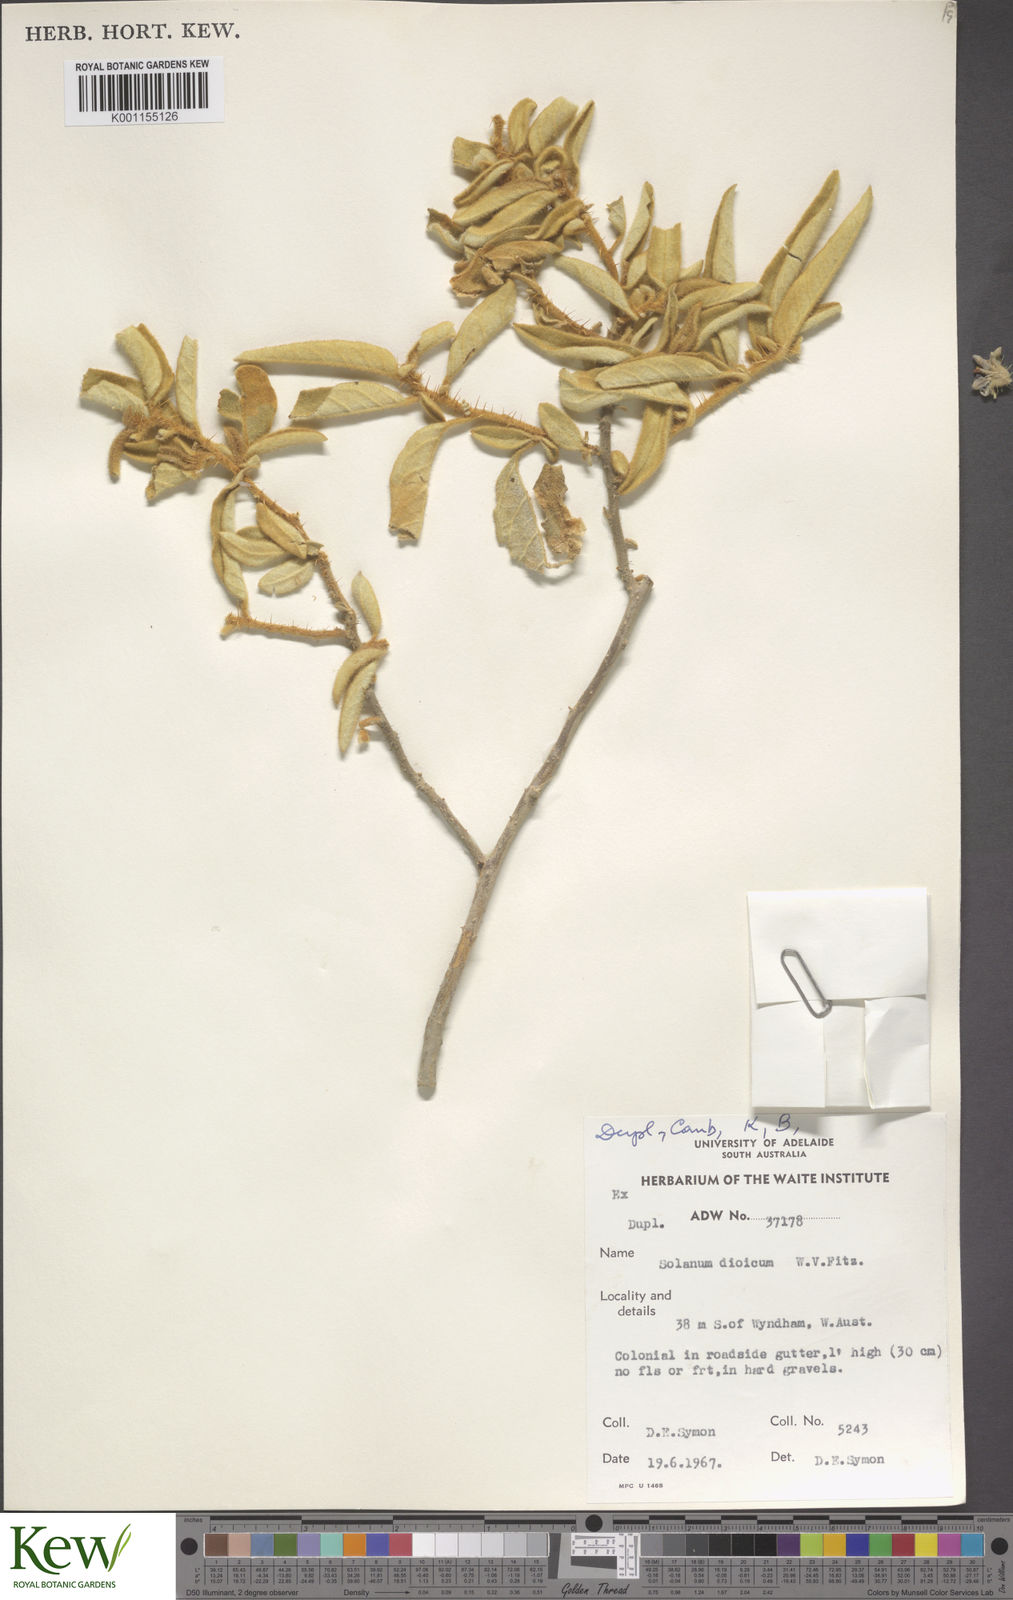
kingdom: Plantae
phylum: Tracheophyta
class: Magnoliopsida
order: Solanales
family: Solanaceae
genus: Solanum
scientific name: Solanum dioicum
